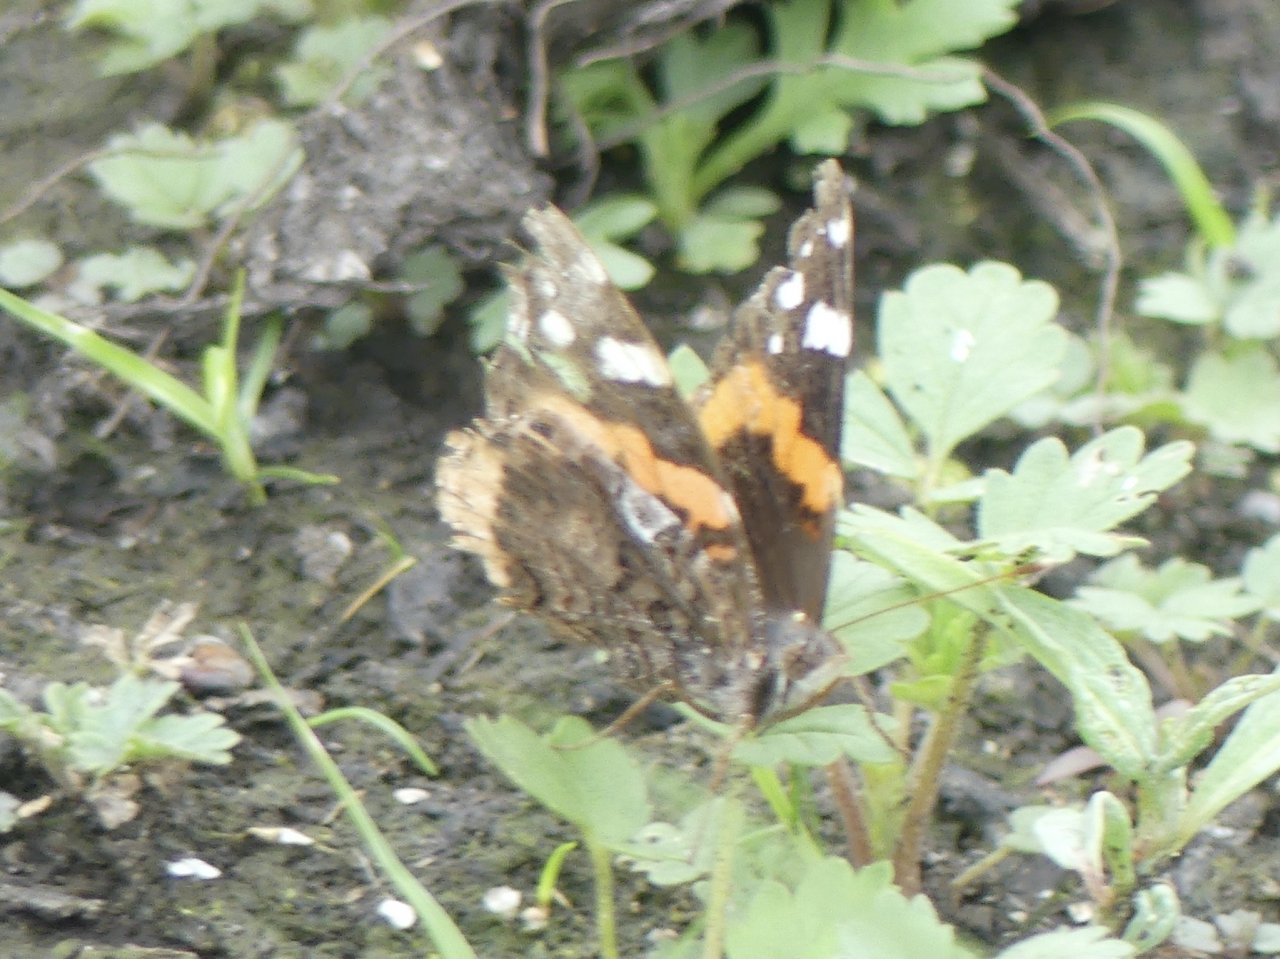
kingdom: Animalia
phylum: Arthropoda
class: Insecta
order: Lepidoptera
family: Nymphalidae
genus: Vanessa
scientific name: Vanessa atalanta
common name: Red Admiral
